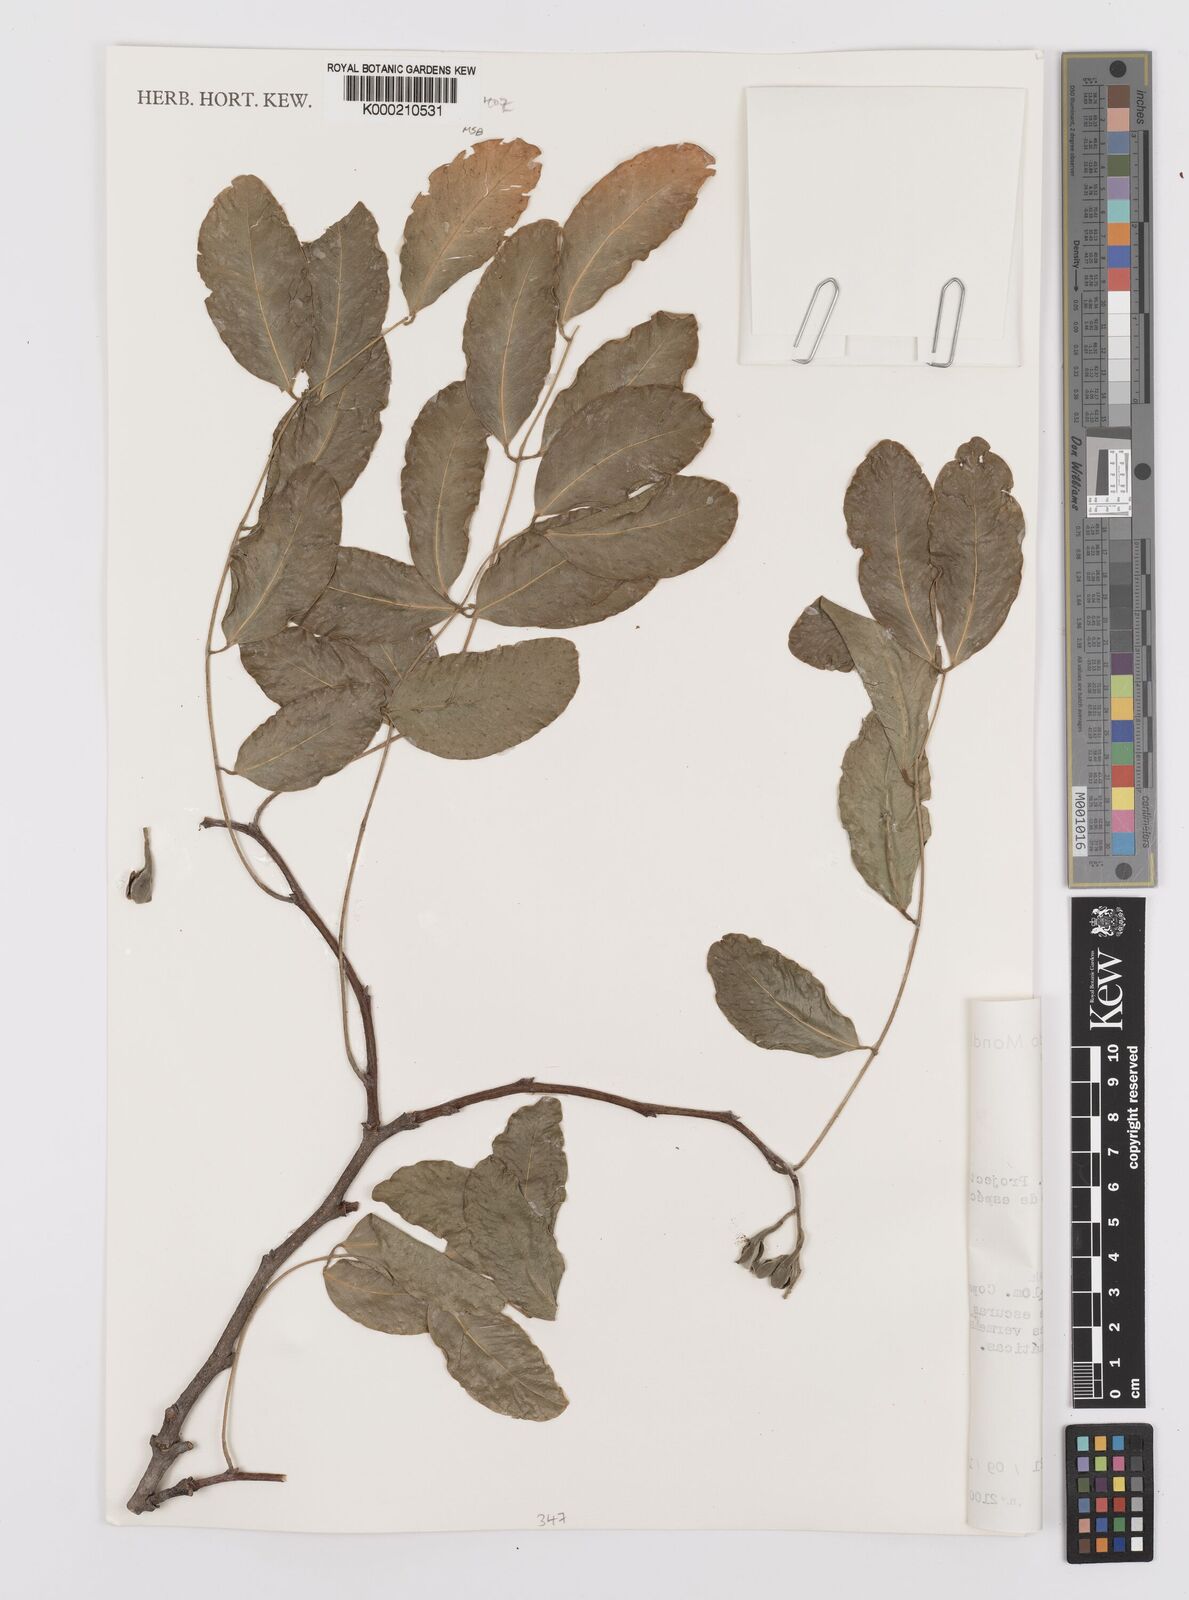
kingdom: Plantae
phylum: Tracheophyta
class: Magnoliopsida
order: Fabales
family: Fabaceae
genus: Afzelia
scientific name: Afzelia quanzensis
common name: Pod mahogany
